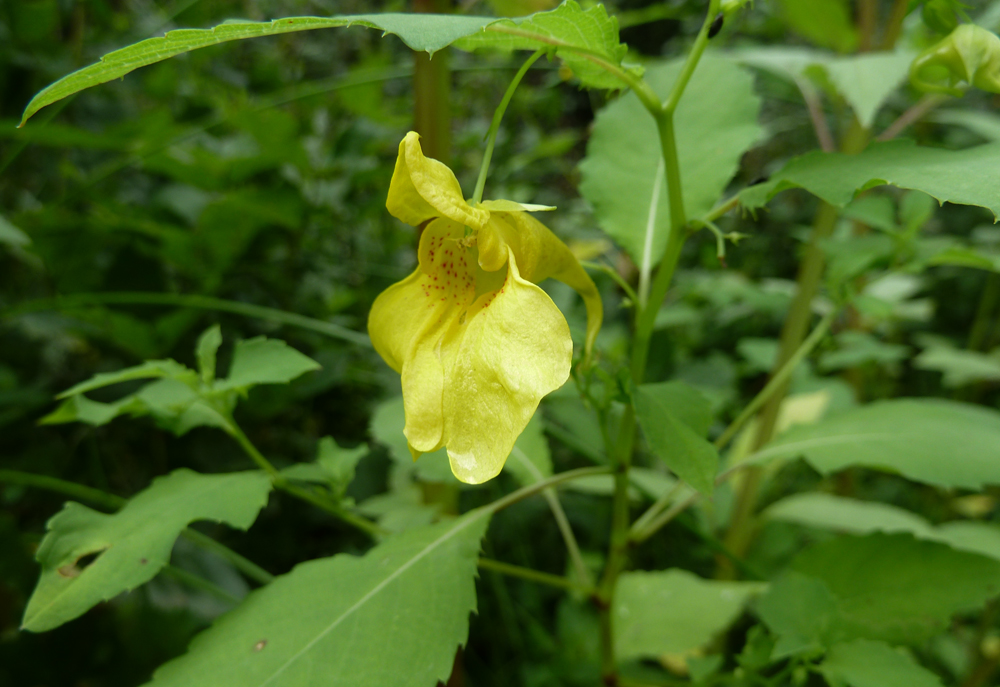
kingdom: Plantae
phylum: Tracheophyta
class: Magnoliopsida
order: Ericales
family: Balsaminaceae
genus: Impatiens
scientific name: Impatiens noli-tangere
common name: Touch-me-not balsam
